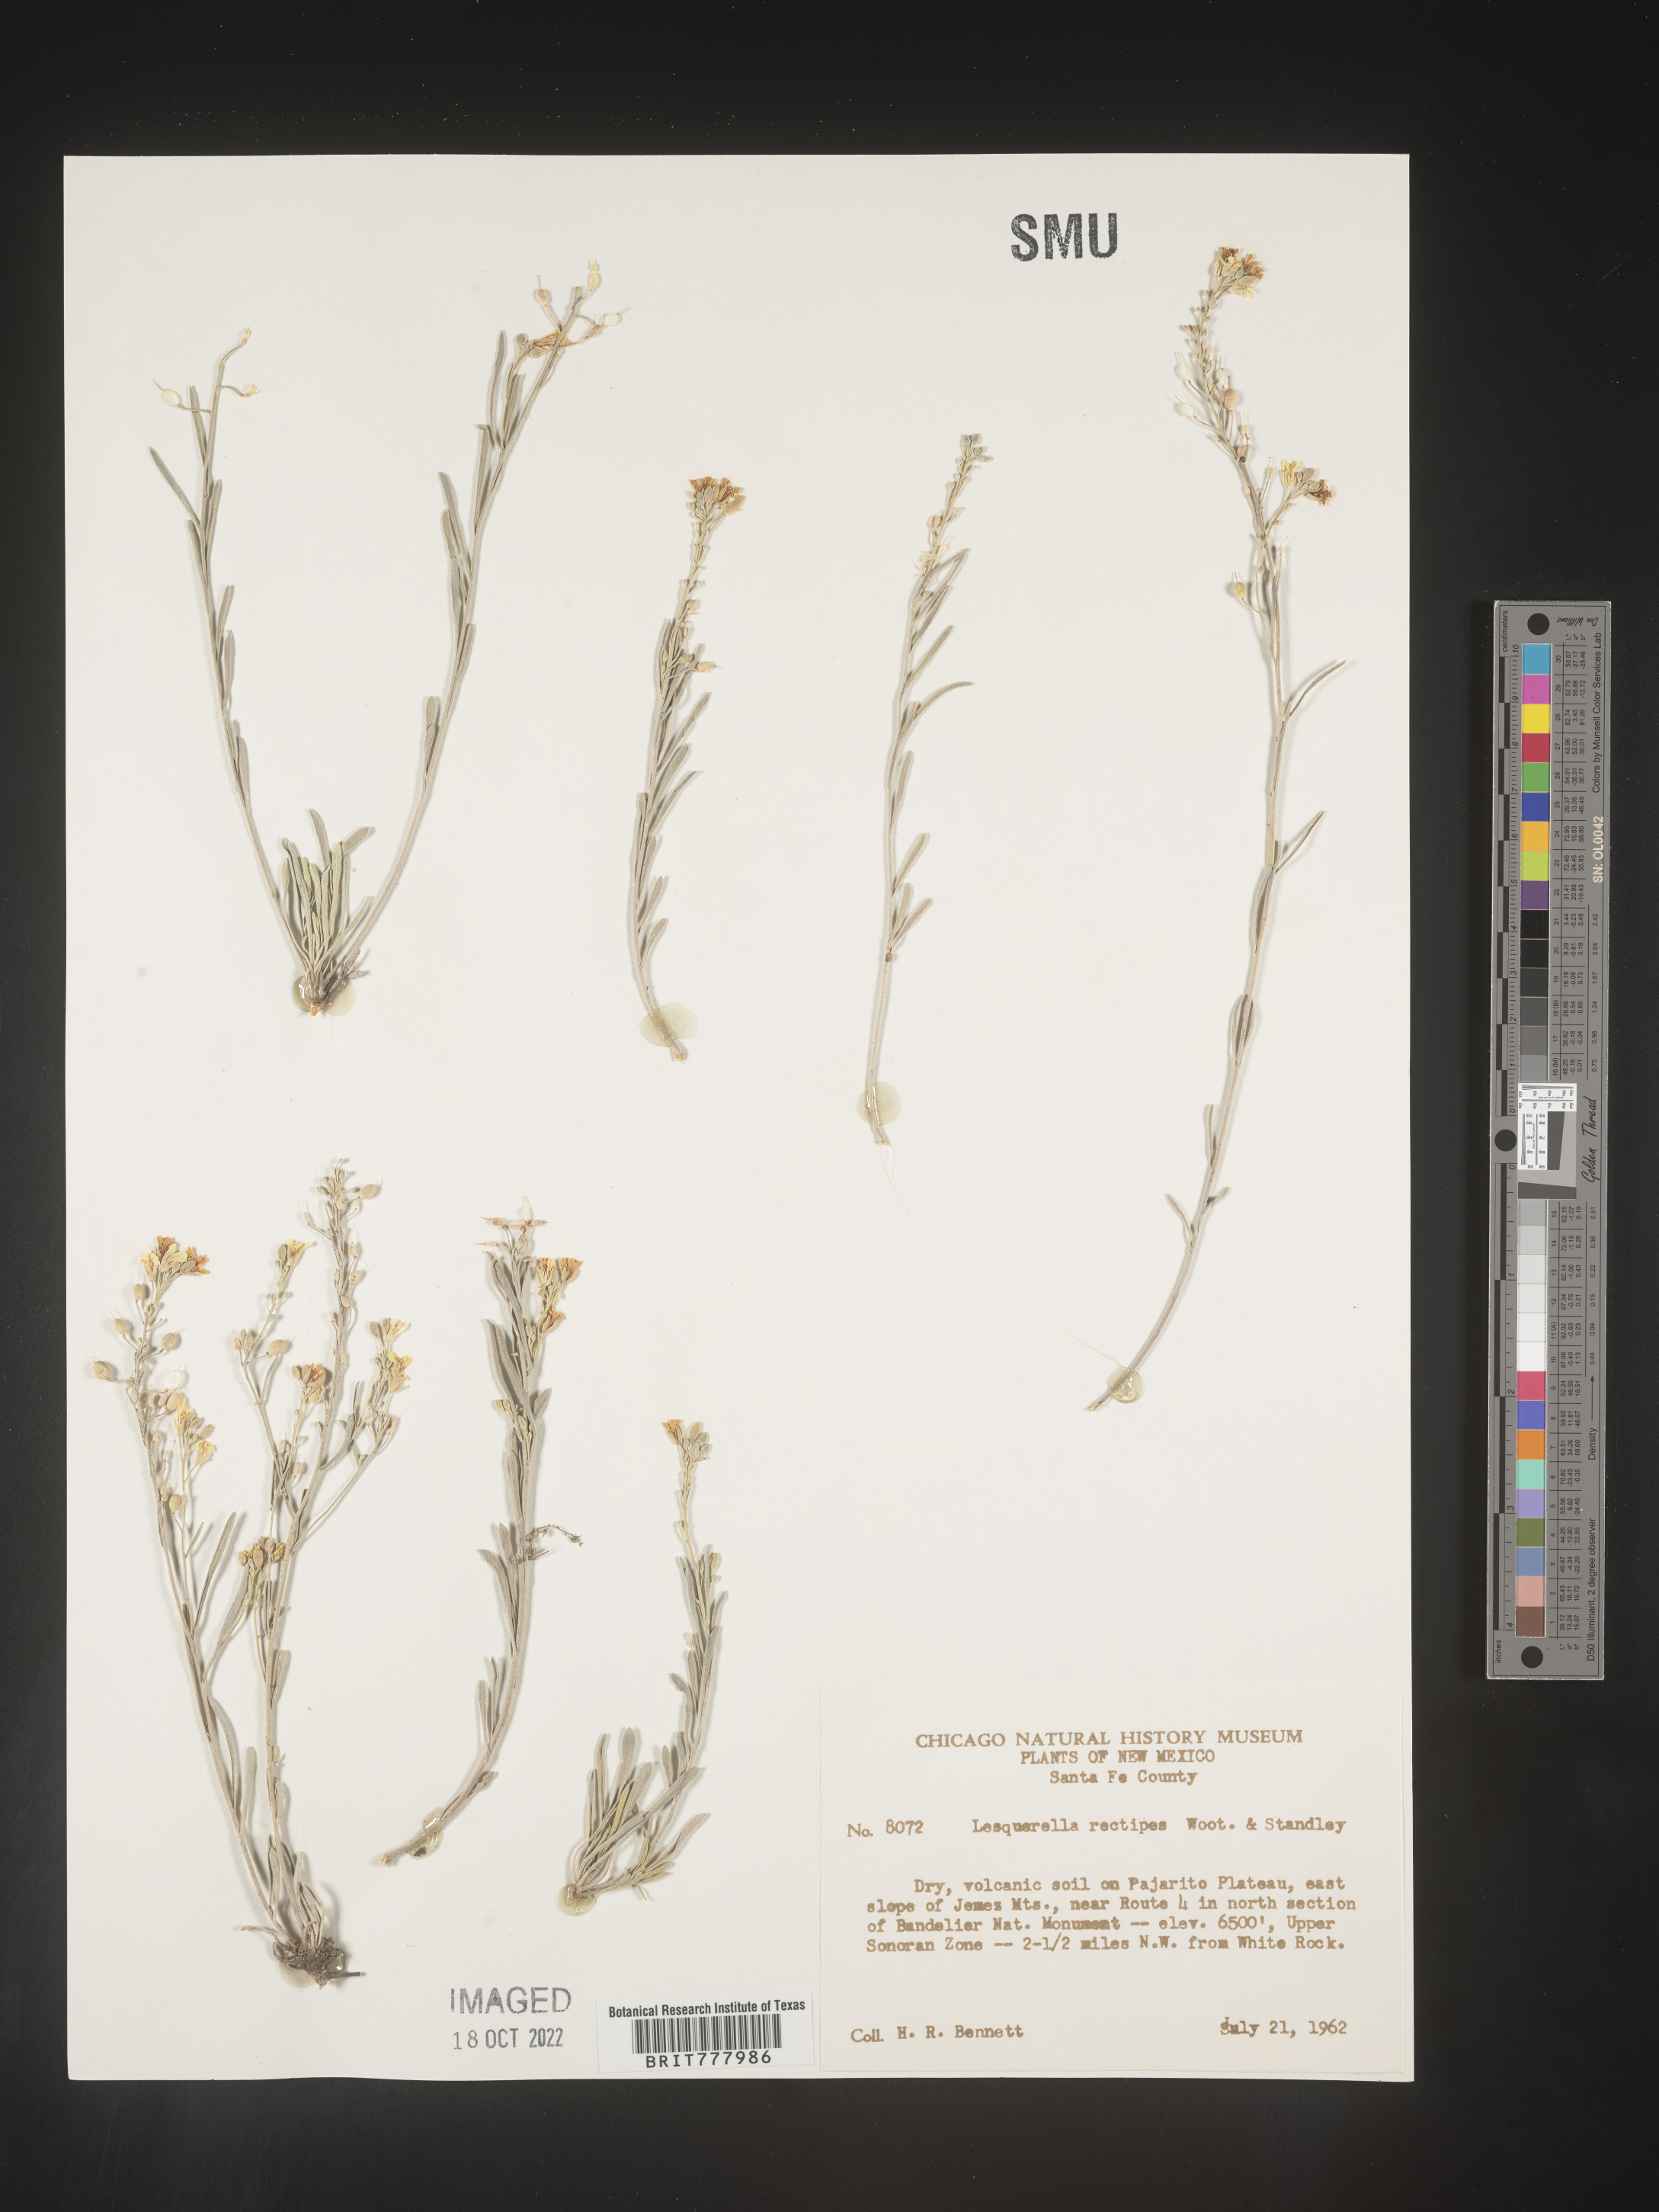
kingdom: Chromista
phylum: Cercozoa
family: Psammonobiotidae
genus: Lesquerella
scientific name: Lesquerella
